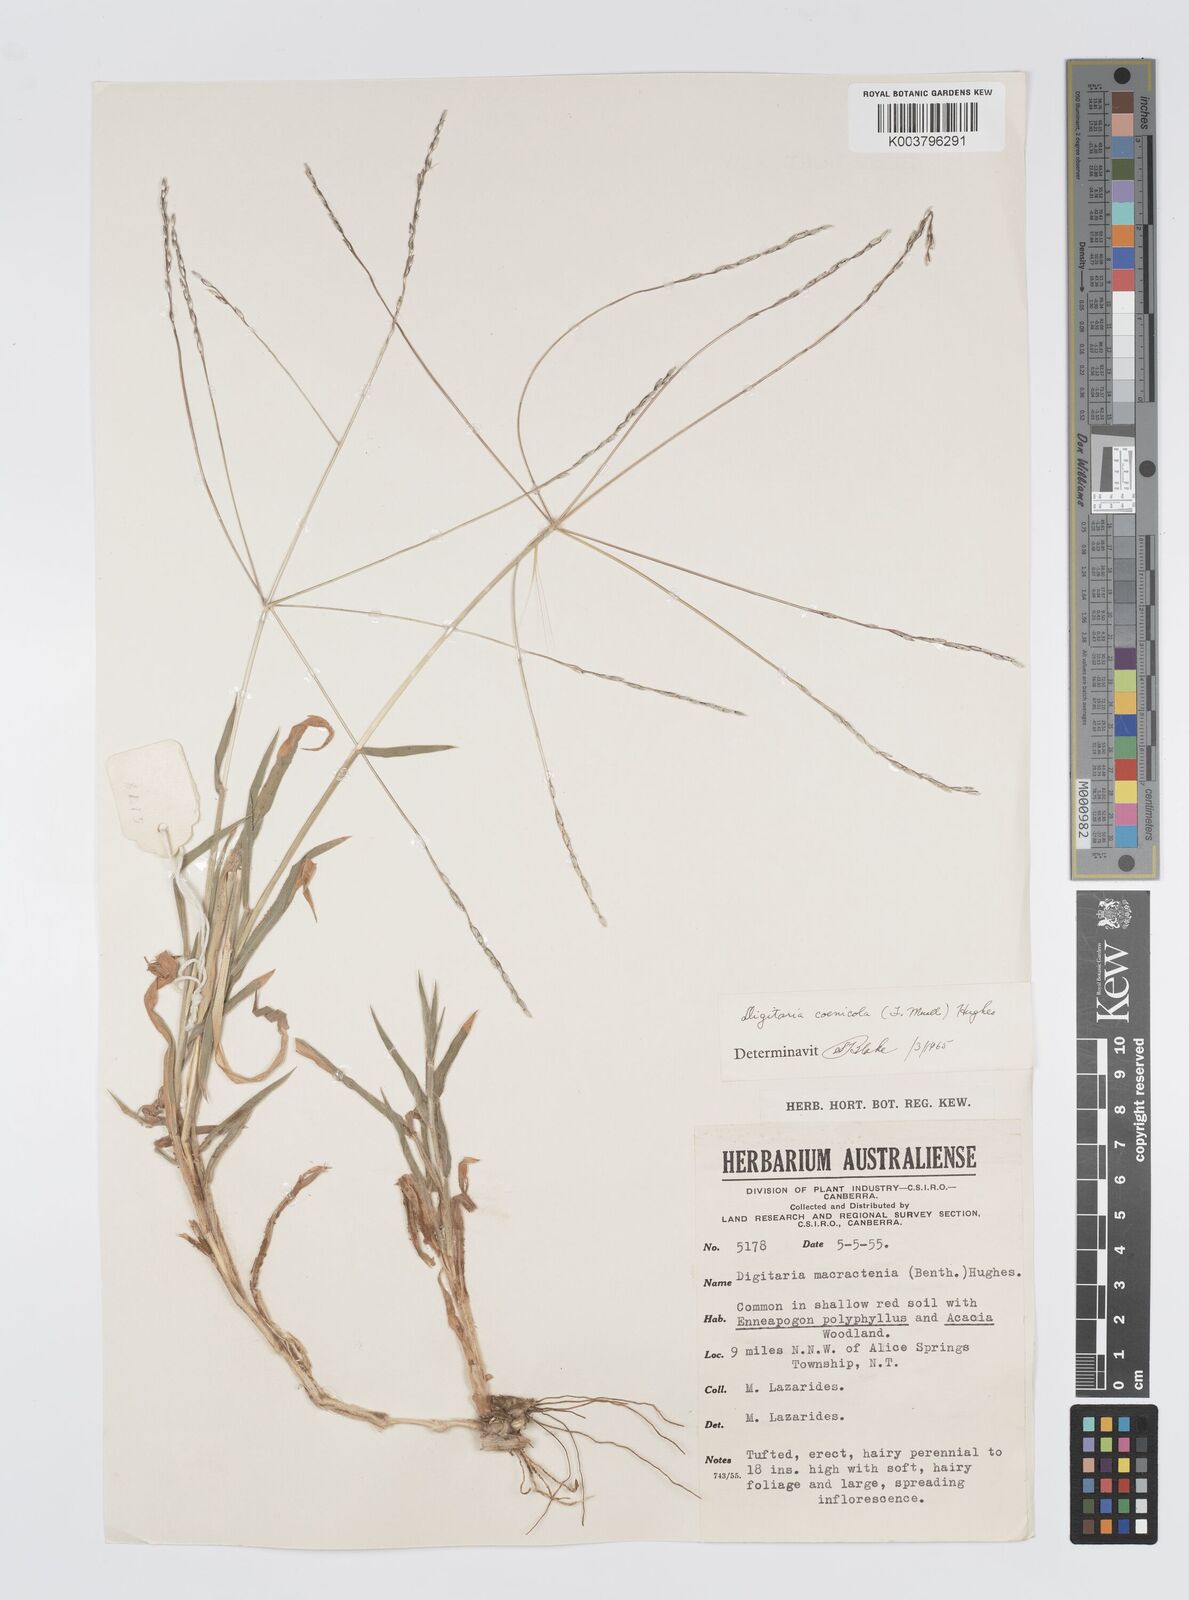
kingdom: Plantae
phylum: Tracheophyta
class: Liliopsida
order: Poales
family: Poaceae
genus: Digitaria
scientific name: Digitaria coenicola
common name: Kanta grass
